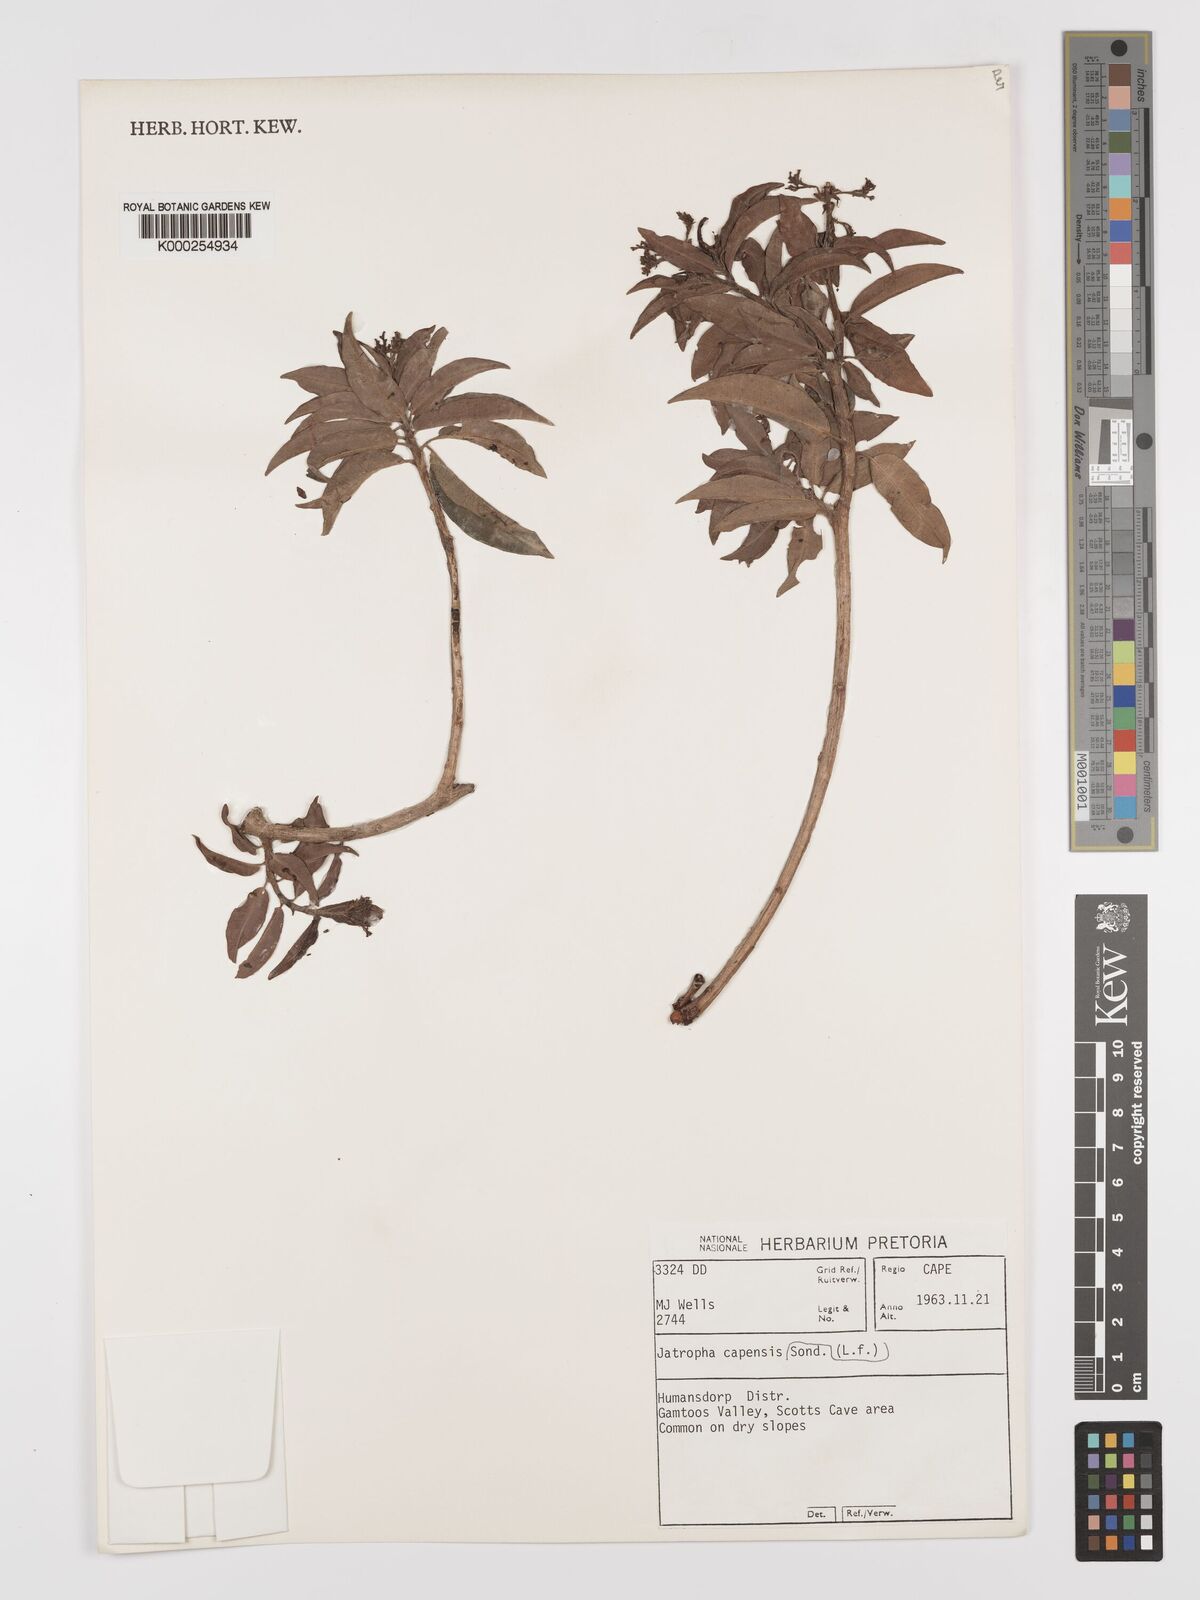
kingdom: Plantae
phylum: Tracheophyta
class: Magnoliopsida
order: Malpighiales
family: Euphorbiaceae
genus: Jatropha
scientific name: Jatropha capensis
